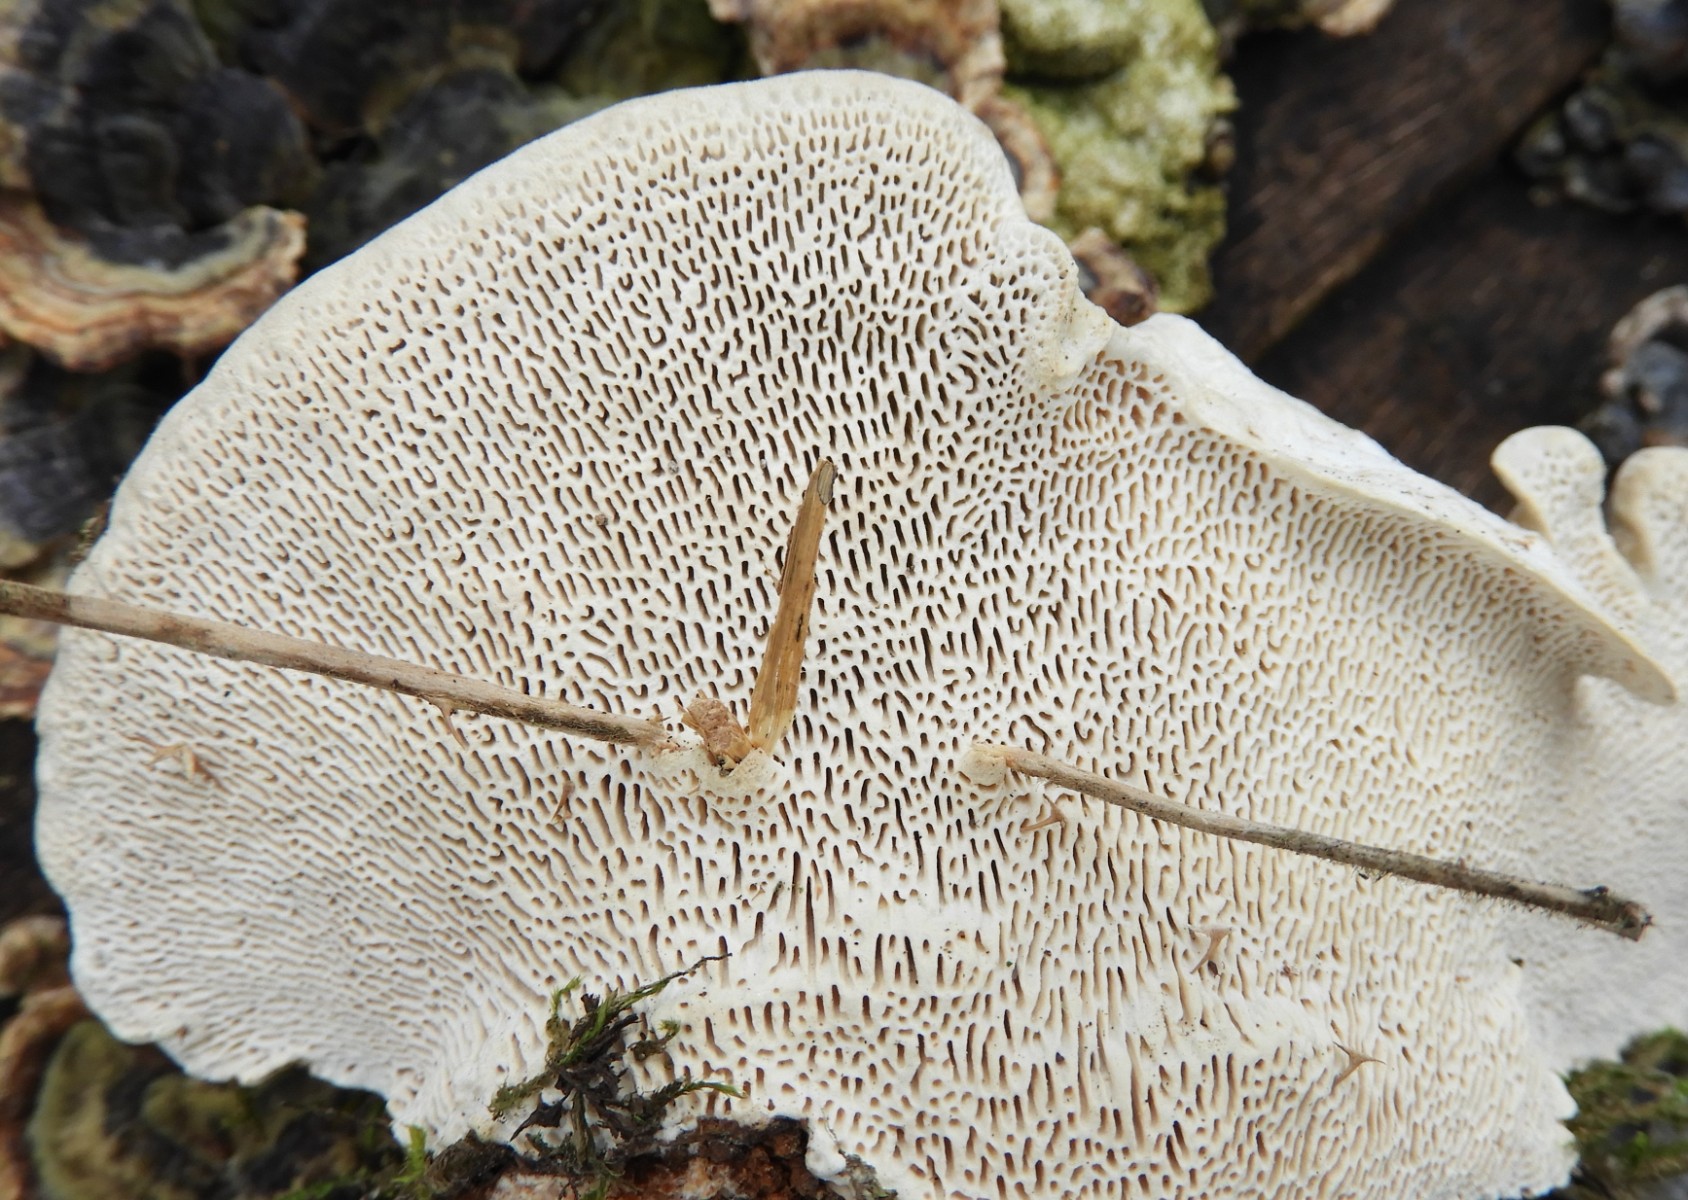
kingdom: Fungi
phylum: Basidiomycota
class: Agaricomycetes
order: Polyporales
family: Polyporaceae
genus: Trametes
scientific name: Trametes gibbosa
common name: puklet læderporesvamp
